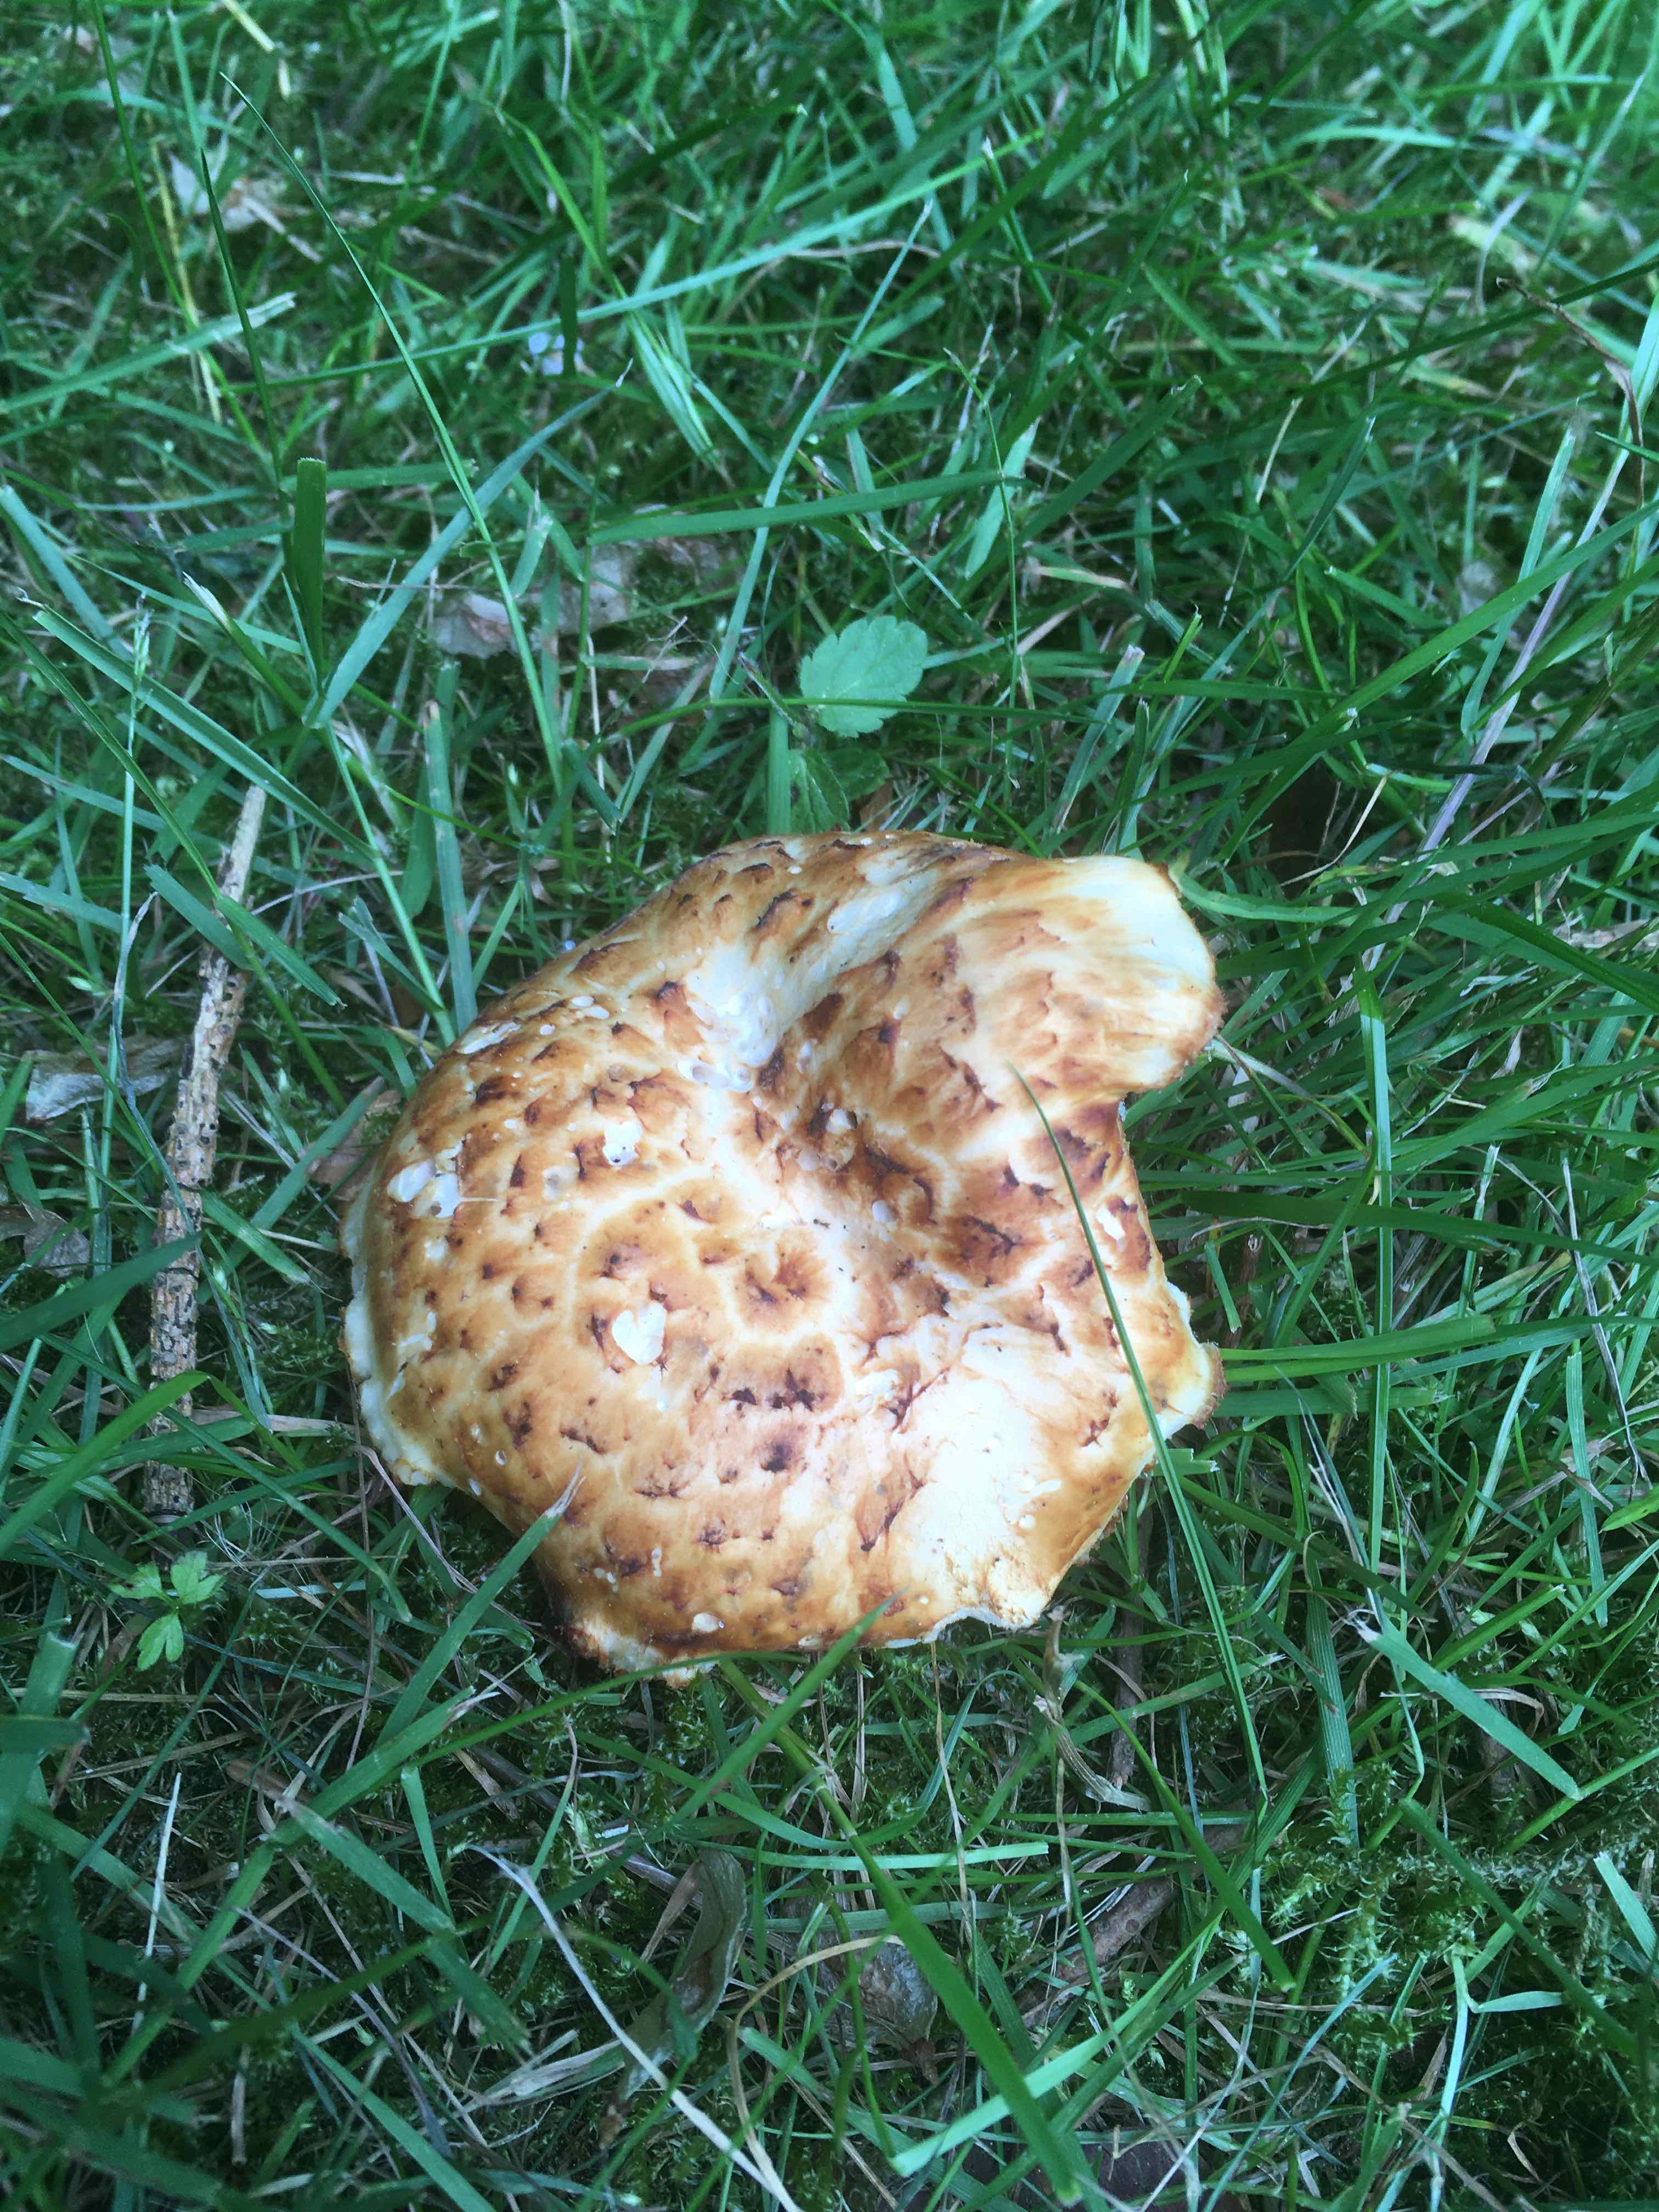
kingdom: Fungi
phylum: Basidiomycota
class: Agaricomycetes
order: Polyporales
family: Polyporaceae
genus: Polyporus
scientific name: Polyporus tuberaster
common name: knoldet stilkporesvamp
